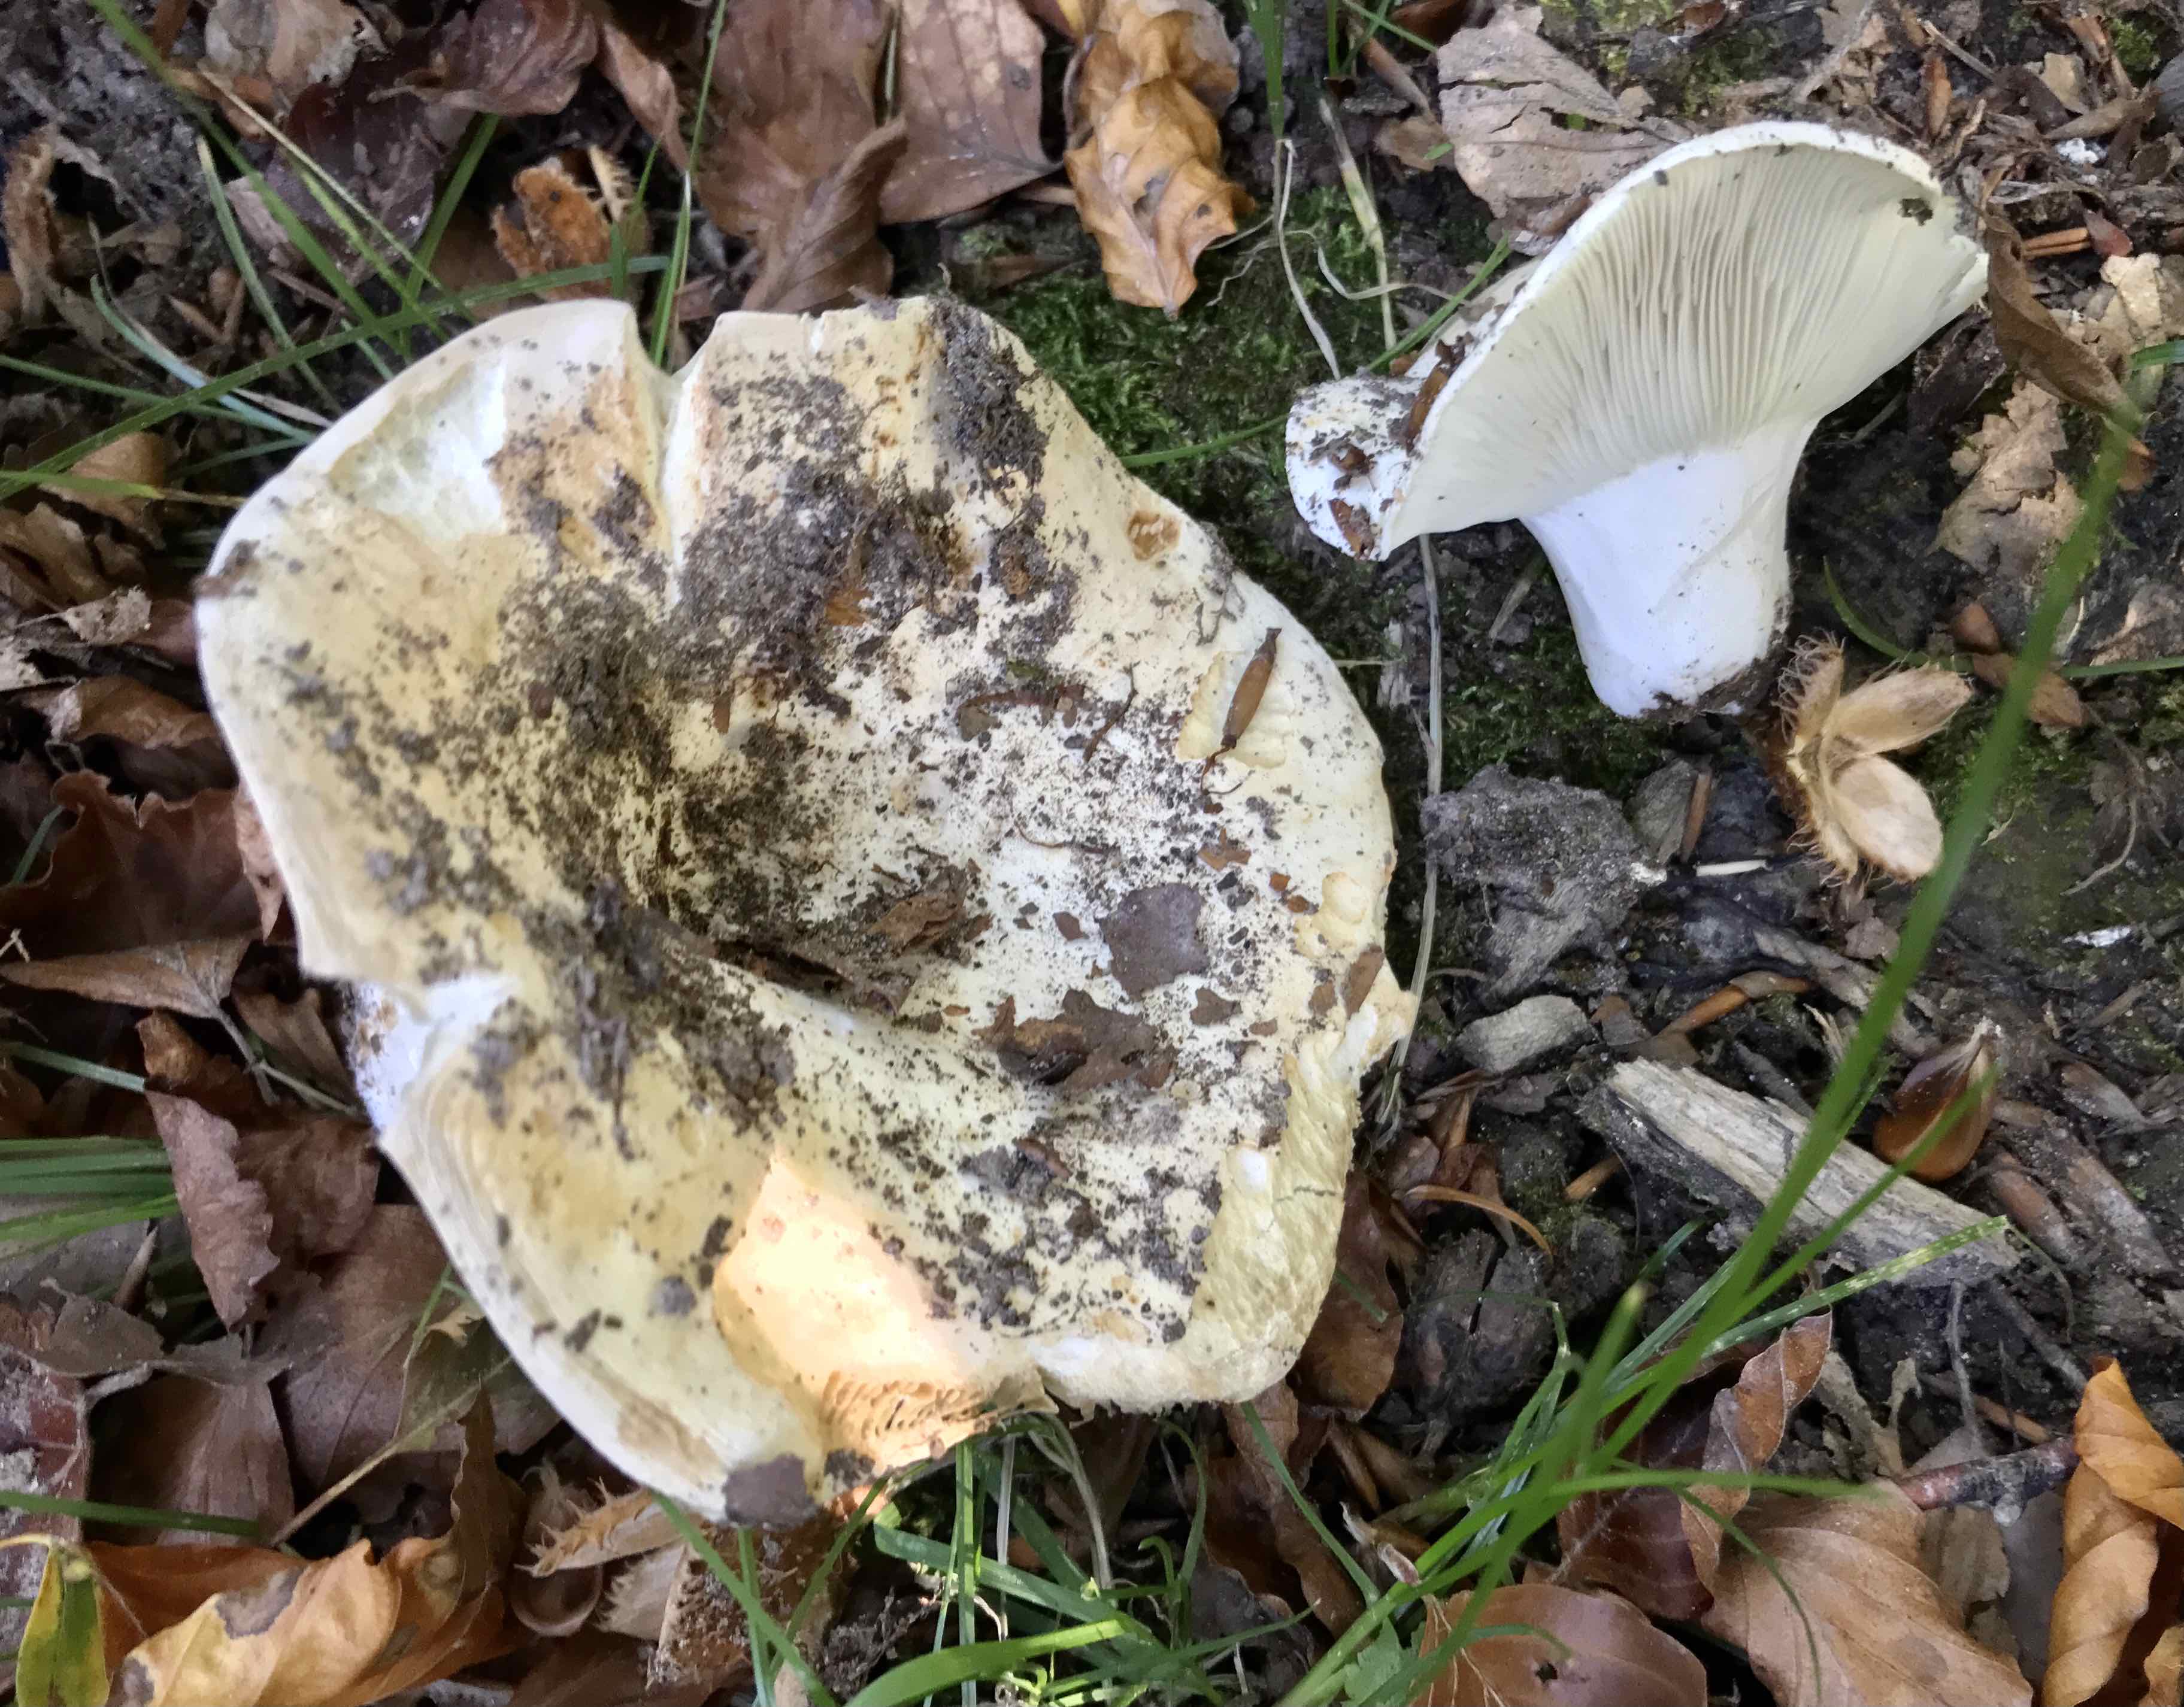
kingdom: Fungi
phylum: Basidiomycota
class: Agaricomycetes
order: Russulales
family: Russulaceae
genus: Russula
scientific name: Russula chloroides
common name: grønhalset tragt-skørhat
